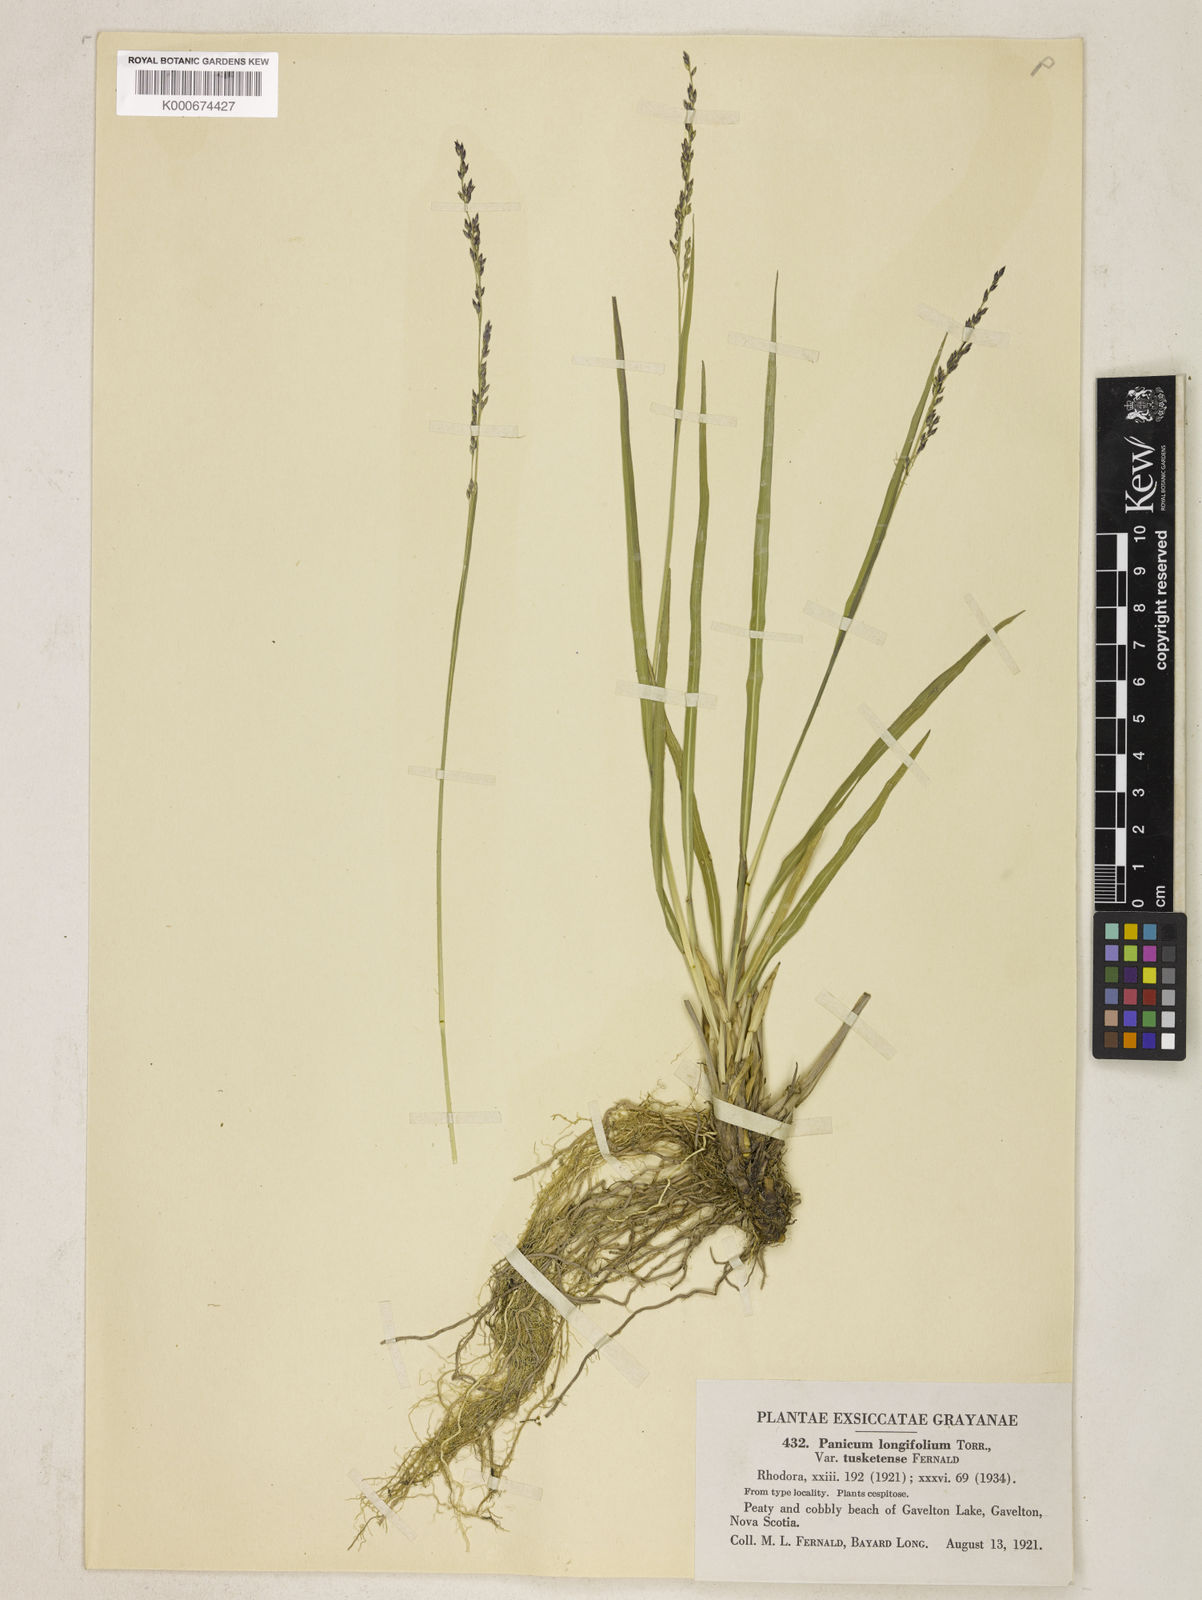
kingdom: Plantae
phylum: Tracheophyta
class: Liliopsida
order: Poales
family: Poaceae
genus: Coleataenia
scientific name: Coleataenia longifolia
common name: Long-leaved panicgrass
